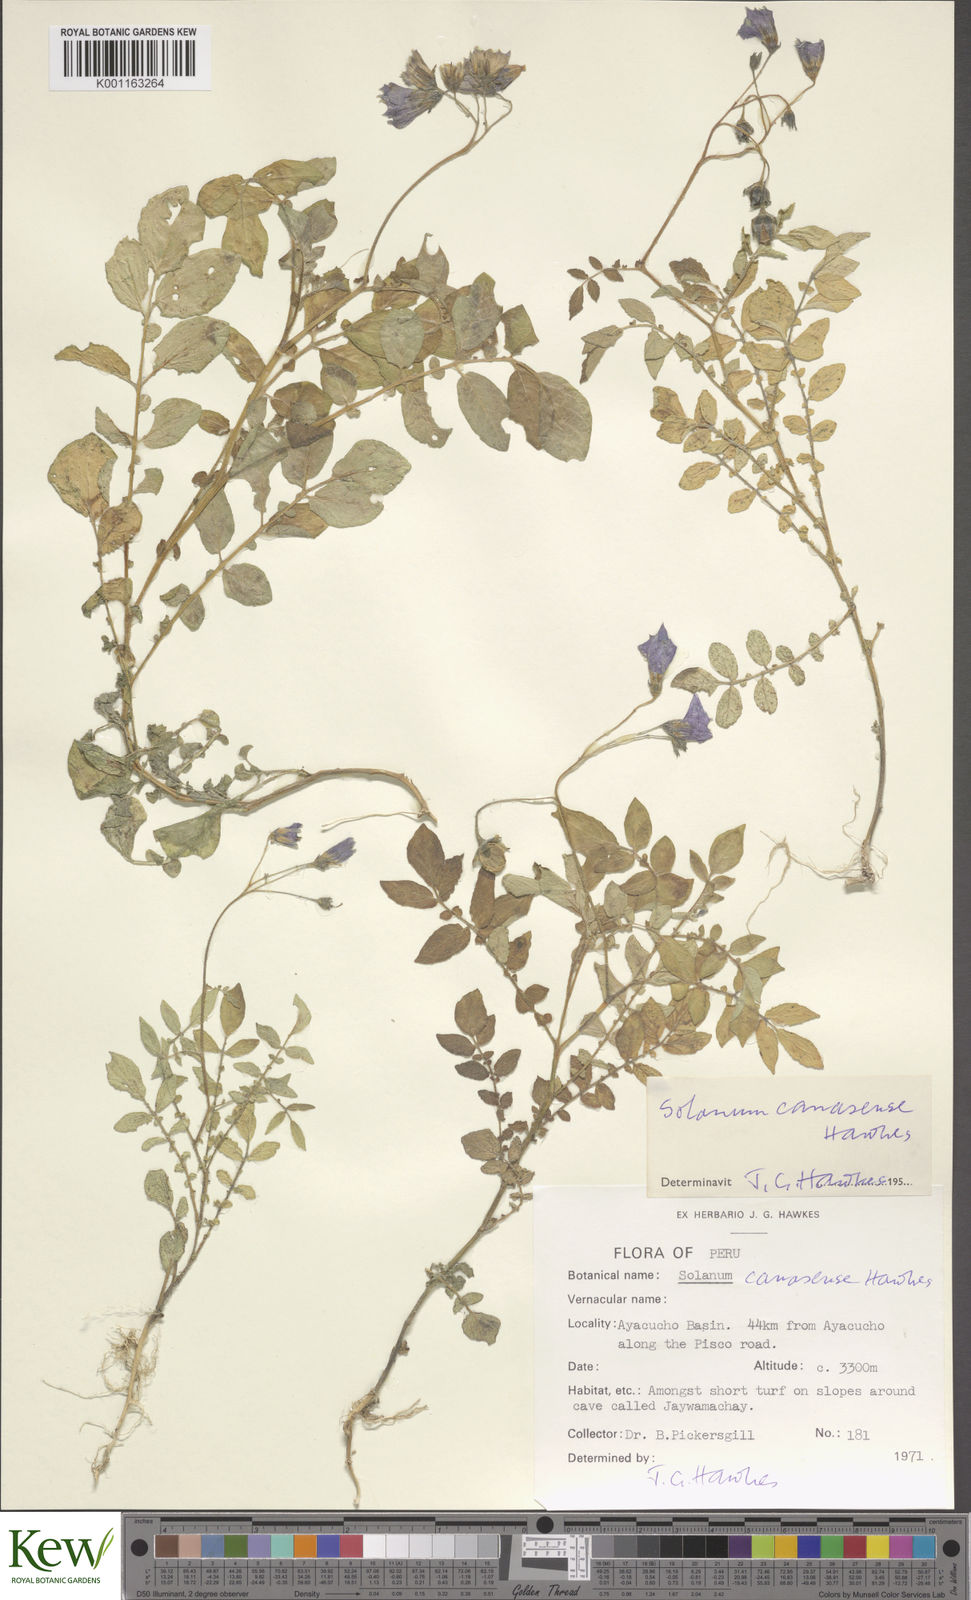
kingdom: Plantae
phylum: Tracheophyta
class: Magnoliopsida
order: Solanales
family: Solanaceae
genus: Solanum
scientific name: Solanum candolleanum
